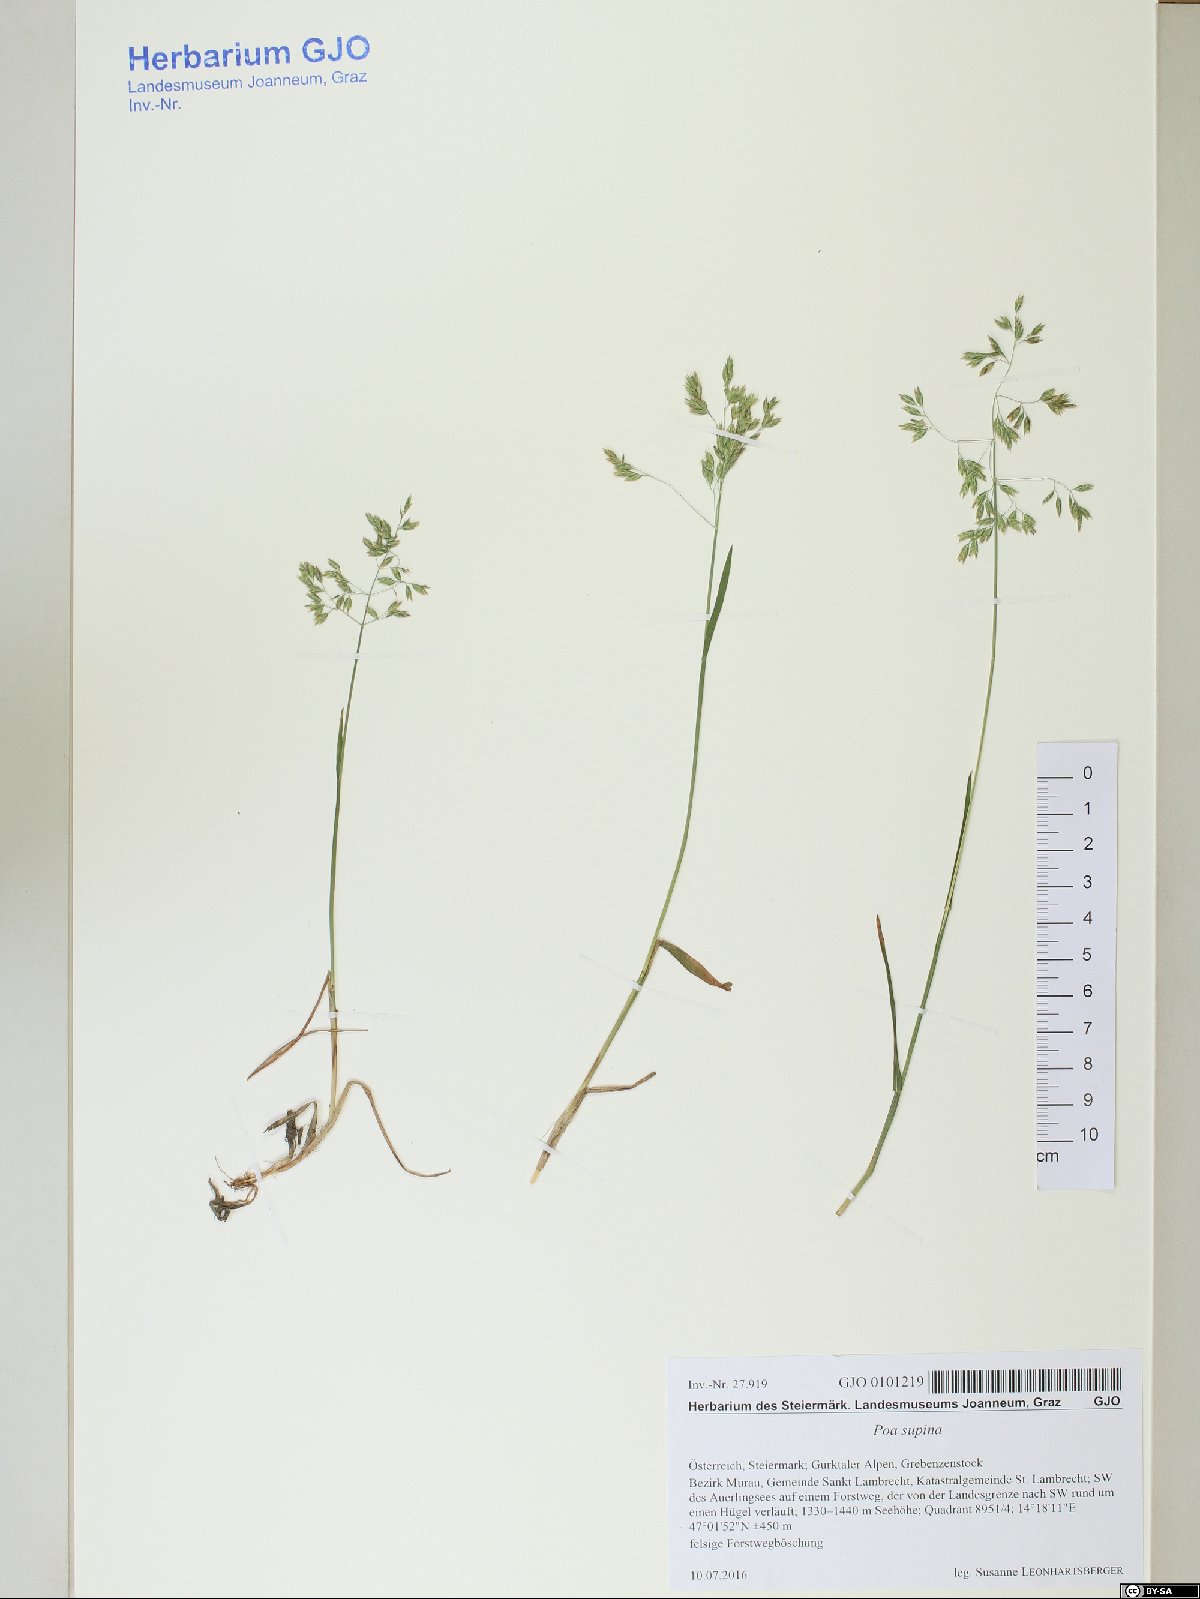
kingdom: Plantae
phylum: Tracheophyta
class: Liliopsida
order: Poales
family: Poaceae
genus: Poa
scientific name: Poa supina
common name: Supina bluegrass
